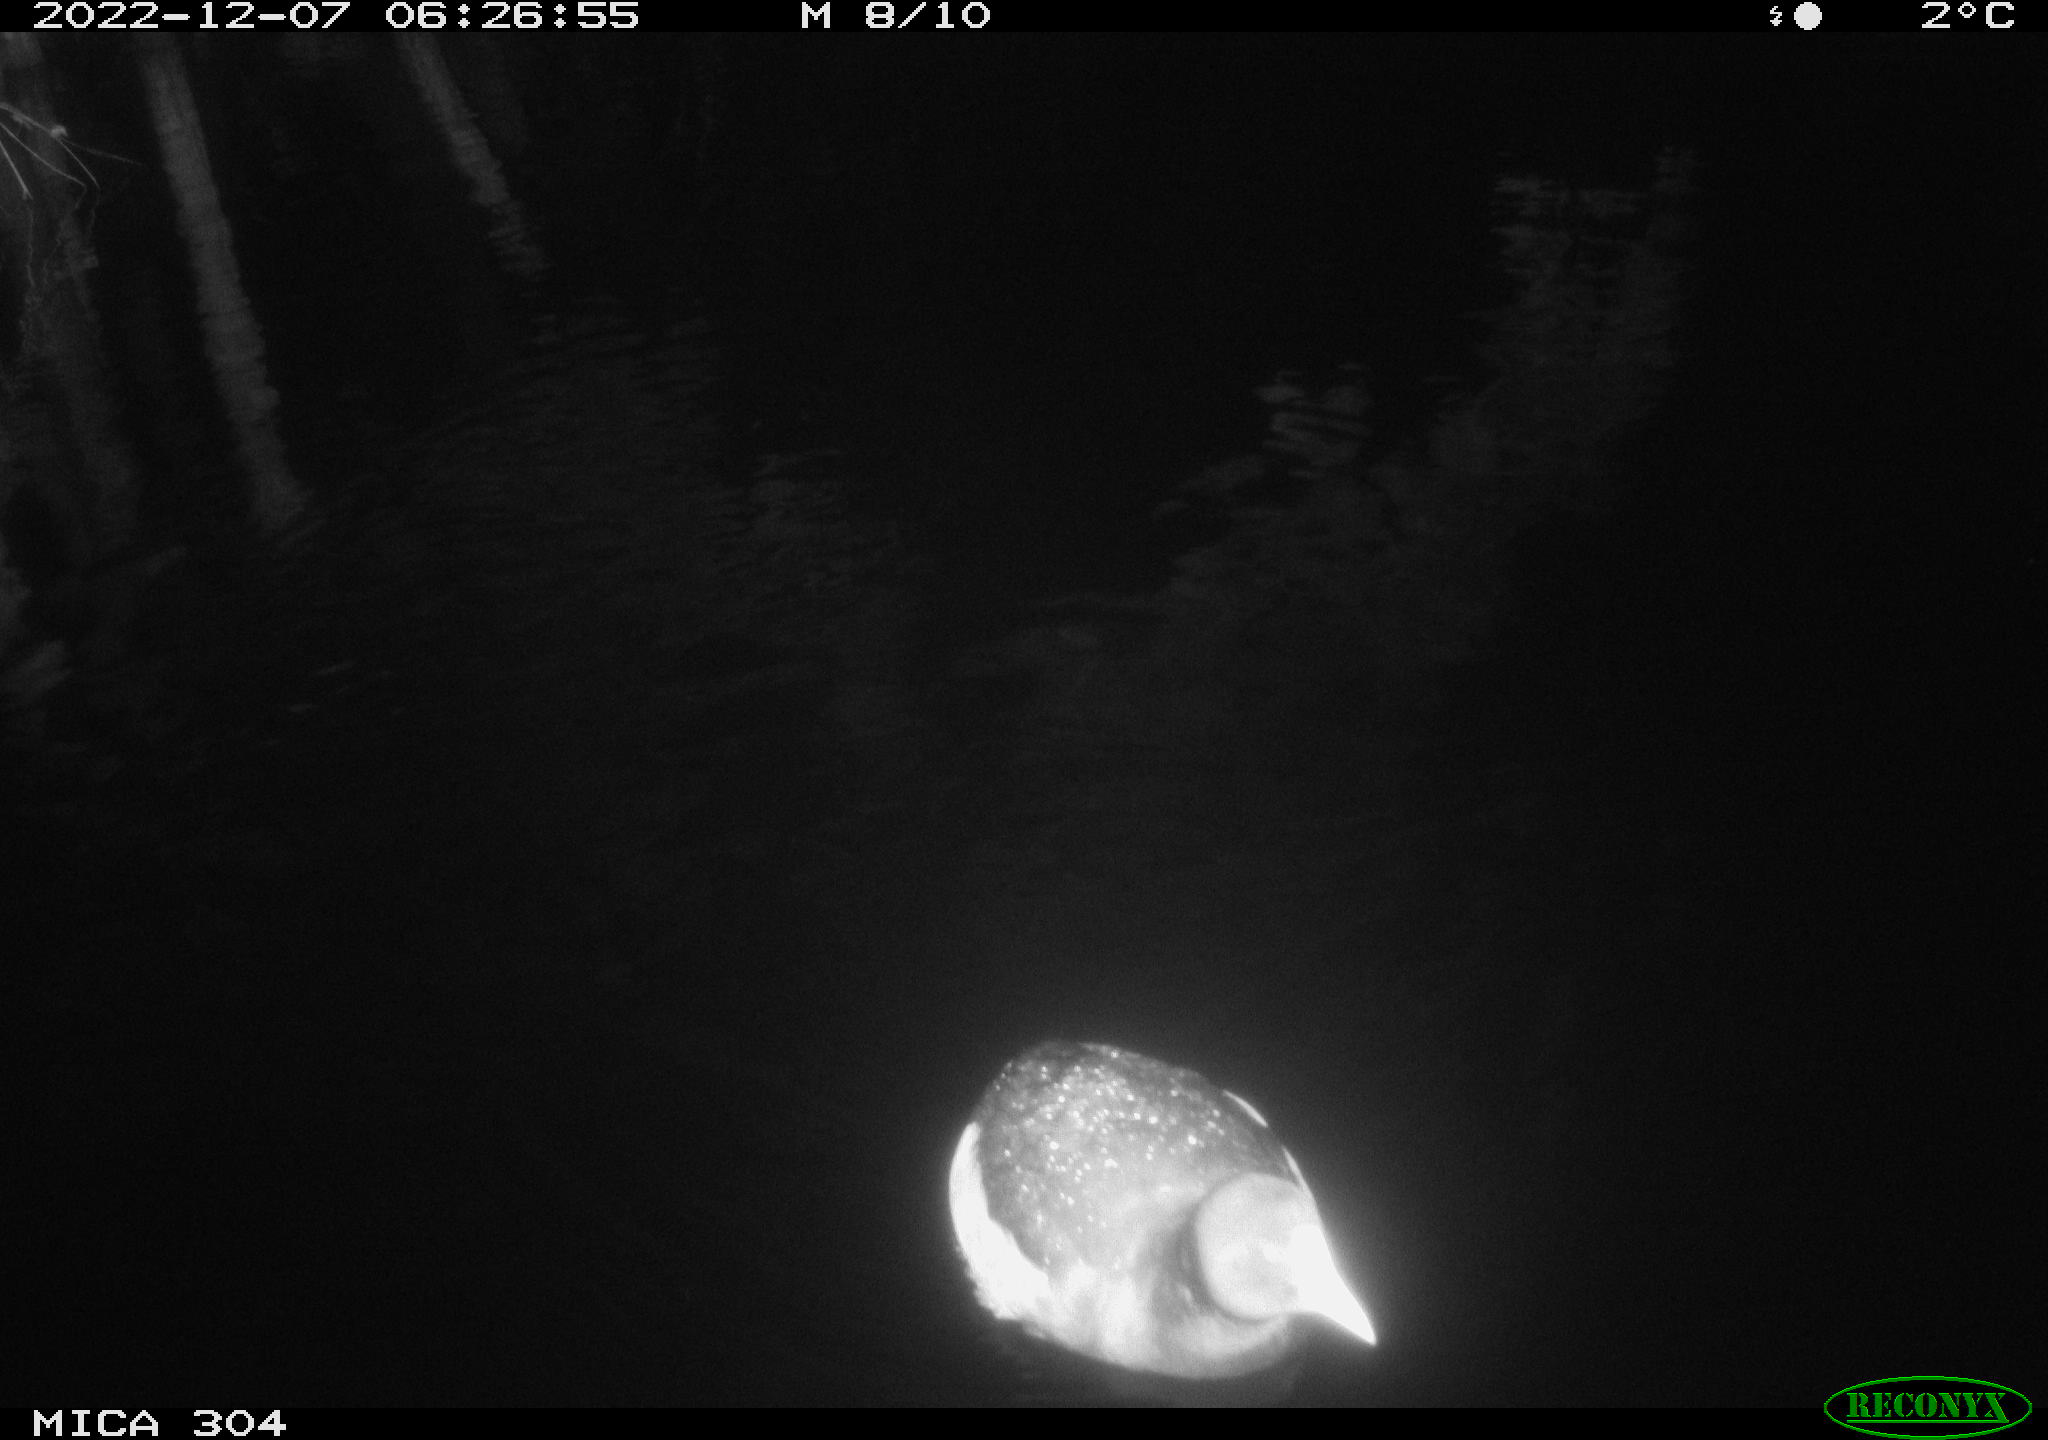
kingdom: Animalia
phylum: Chordata
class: Aves
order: Anseriformes
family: Anatidae
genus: Anas
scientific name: Anas
